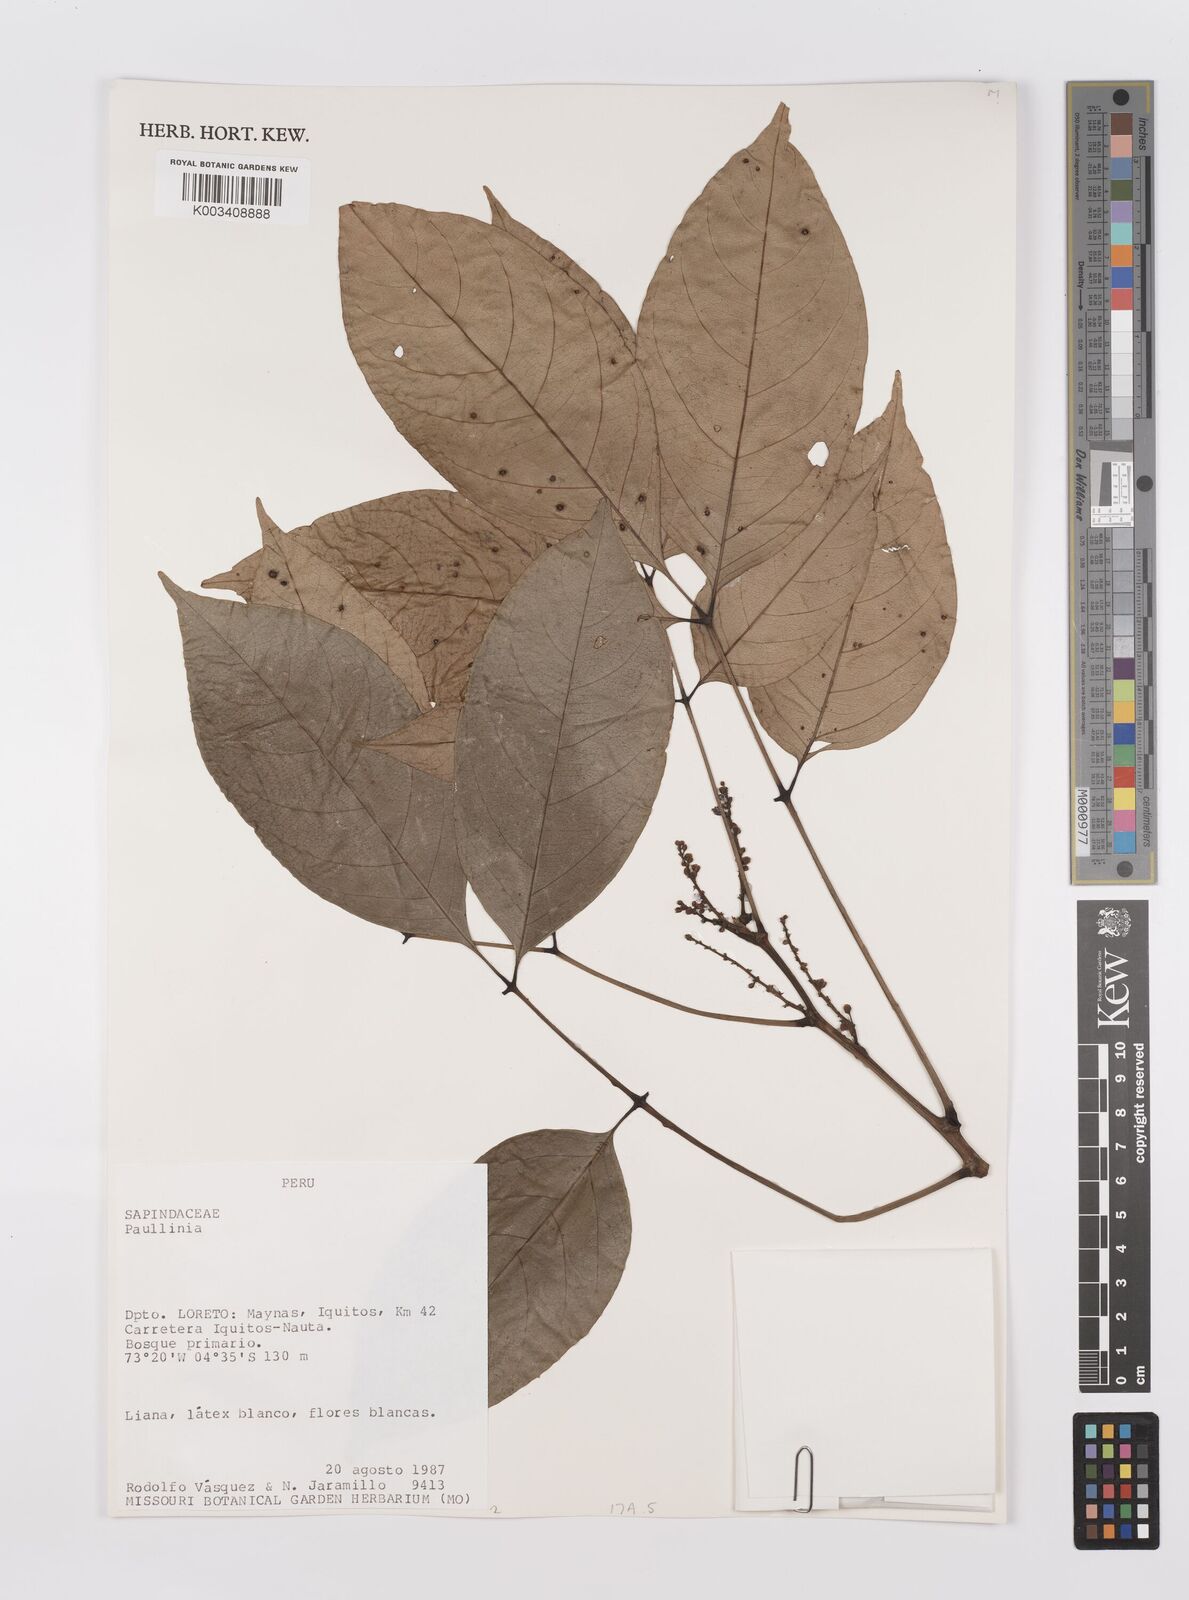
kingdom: Plantae
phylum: Tracheophyta
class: Magnoliopsida
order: Sapindales
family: Sapindaceae
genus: Paullinia
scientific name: Paullinia
